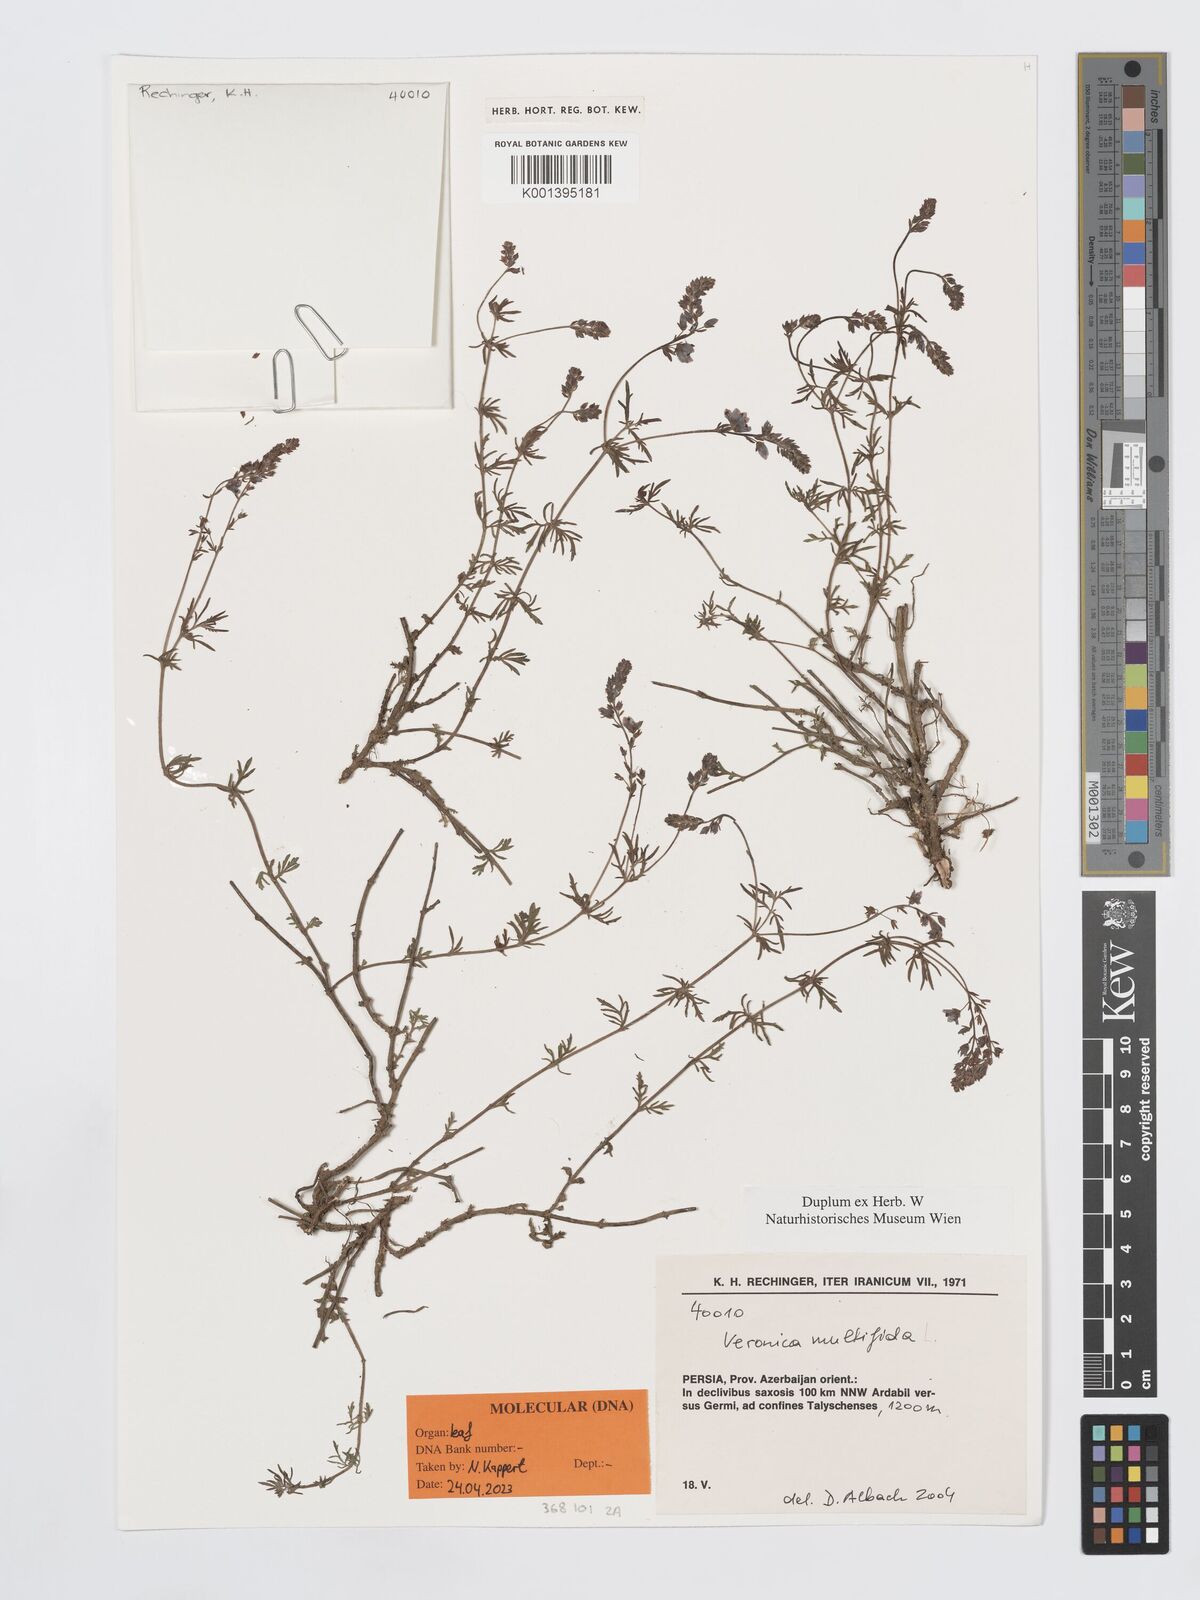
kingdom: Plantae
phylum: Tracheophyta
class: Magnoliopsida
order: Lamiales
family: Plantaginaceae
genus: Veronica
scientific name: Veronica multifida
